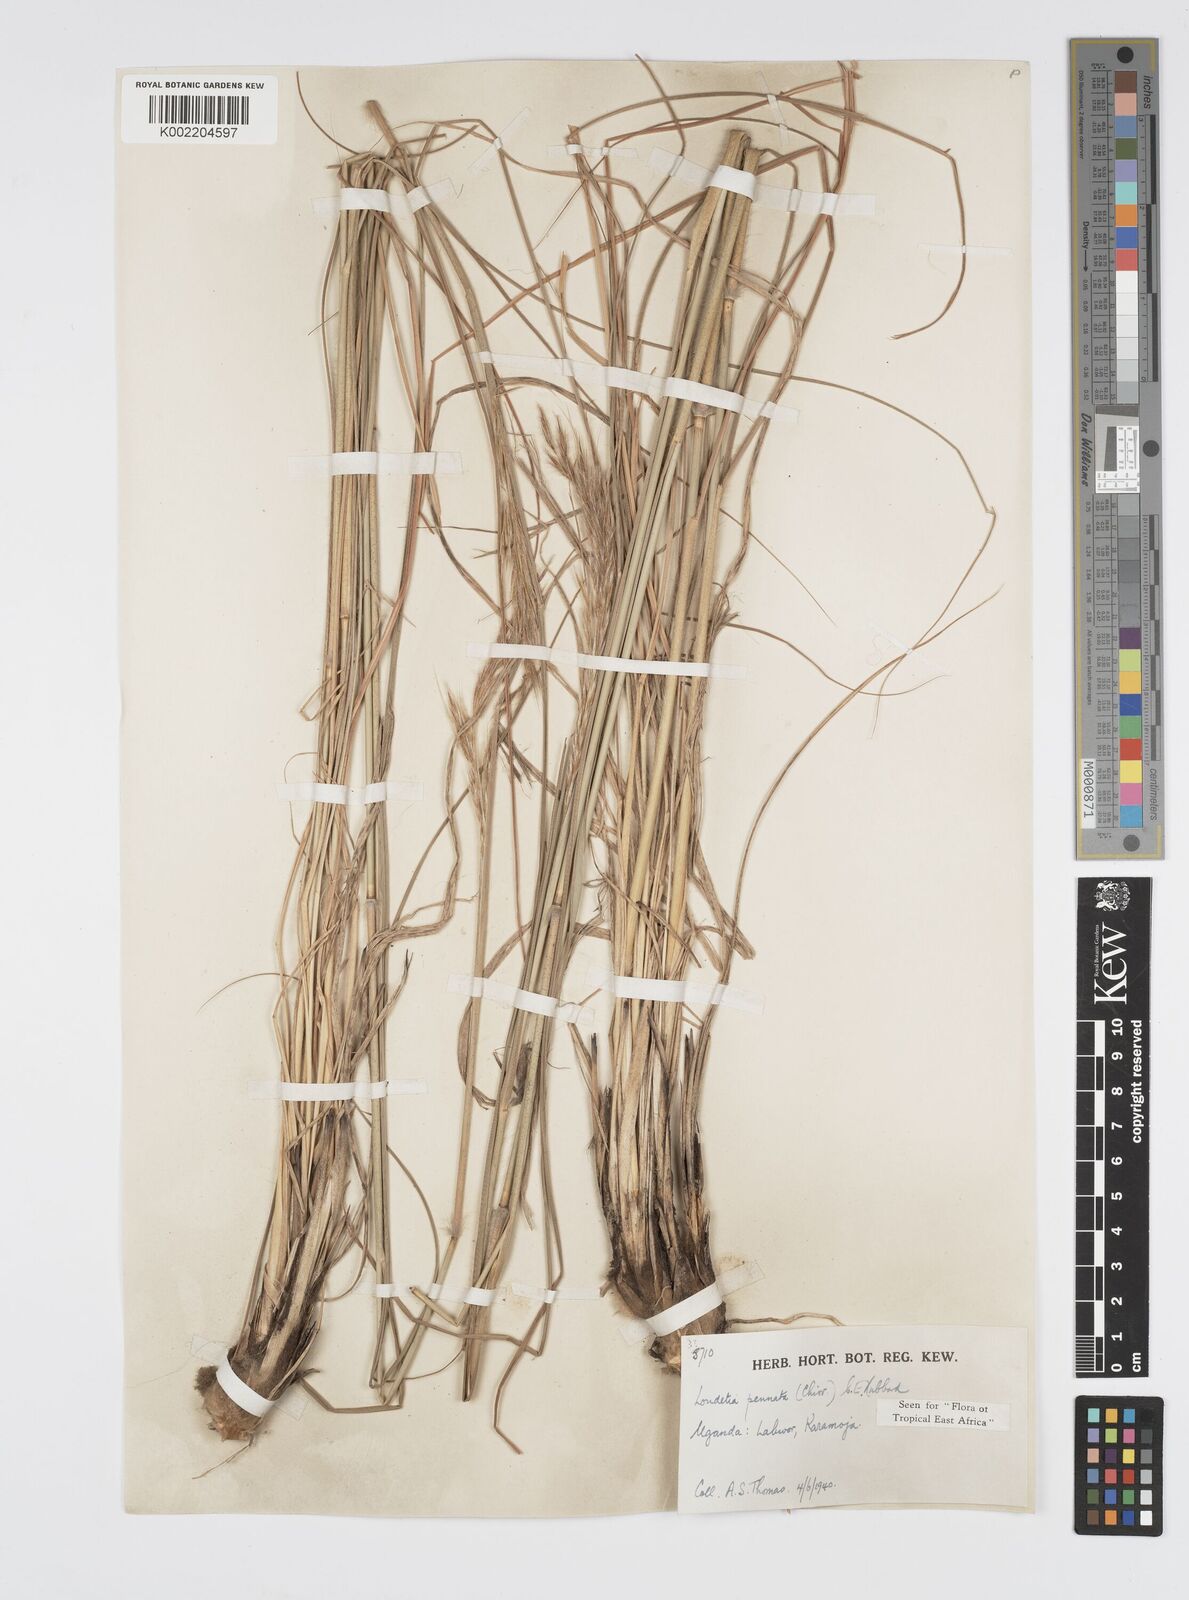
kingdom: Plantae
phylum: Tracheophyta
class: Liliopsida
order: Poales
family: Poaceae
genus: Loudetia
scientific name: Loudetia flavida
